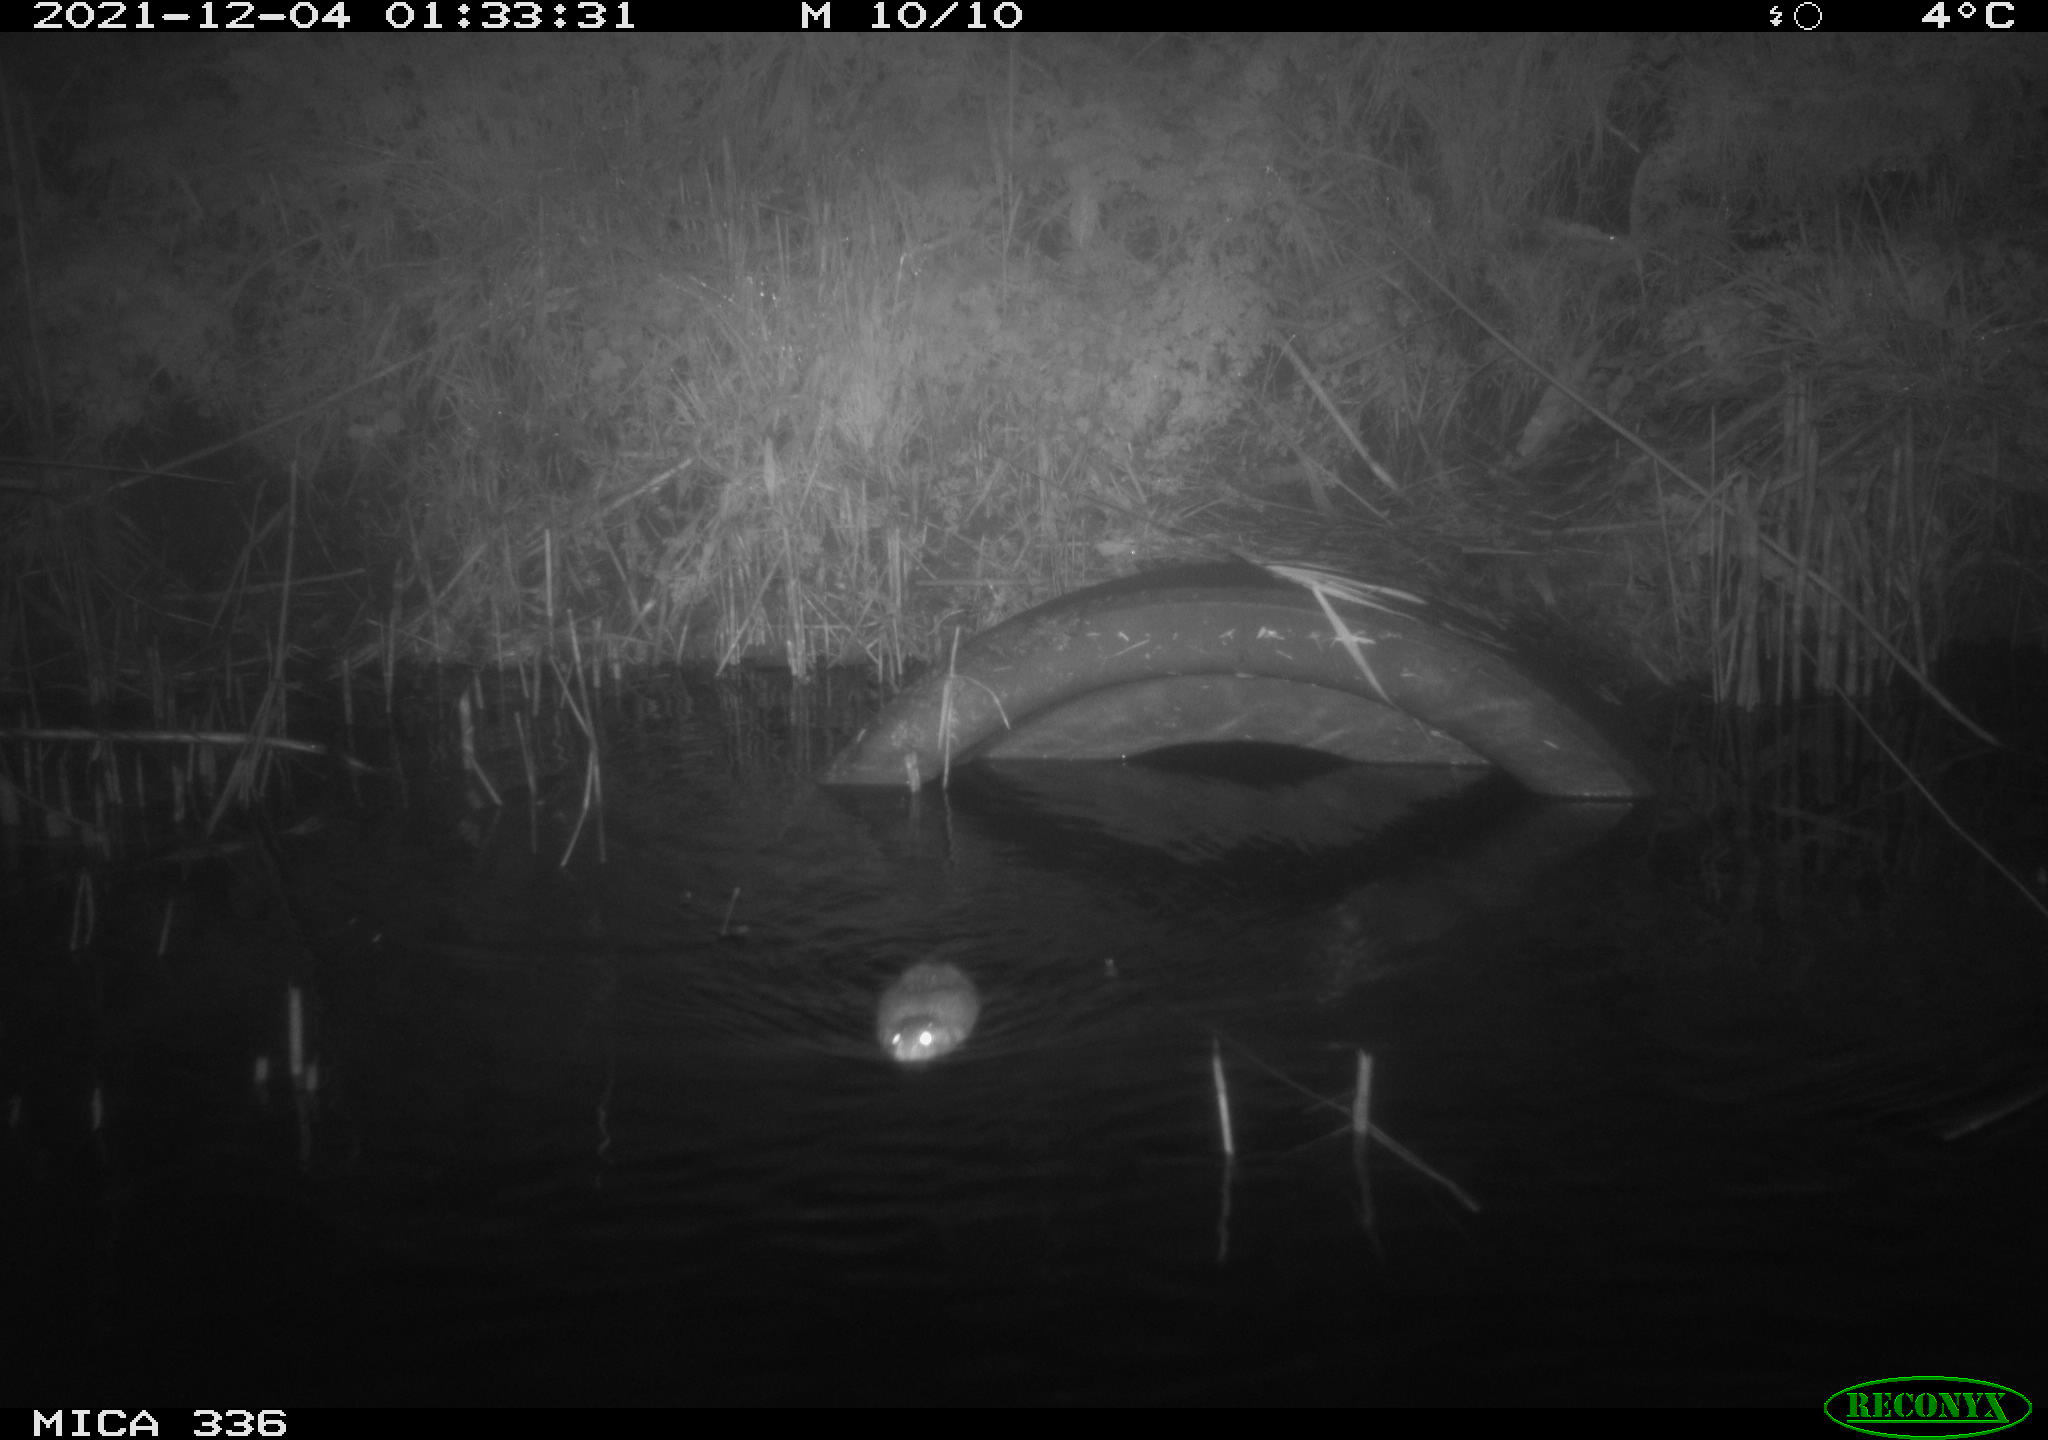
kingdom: Animalia
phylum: Chordata
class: Mammalia
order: Rodentia
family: Muridae
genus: Rattus
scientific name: Rattus norvegicus
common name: Brown rat
